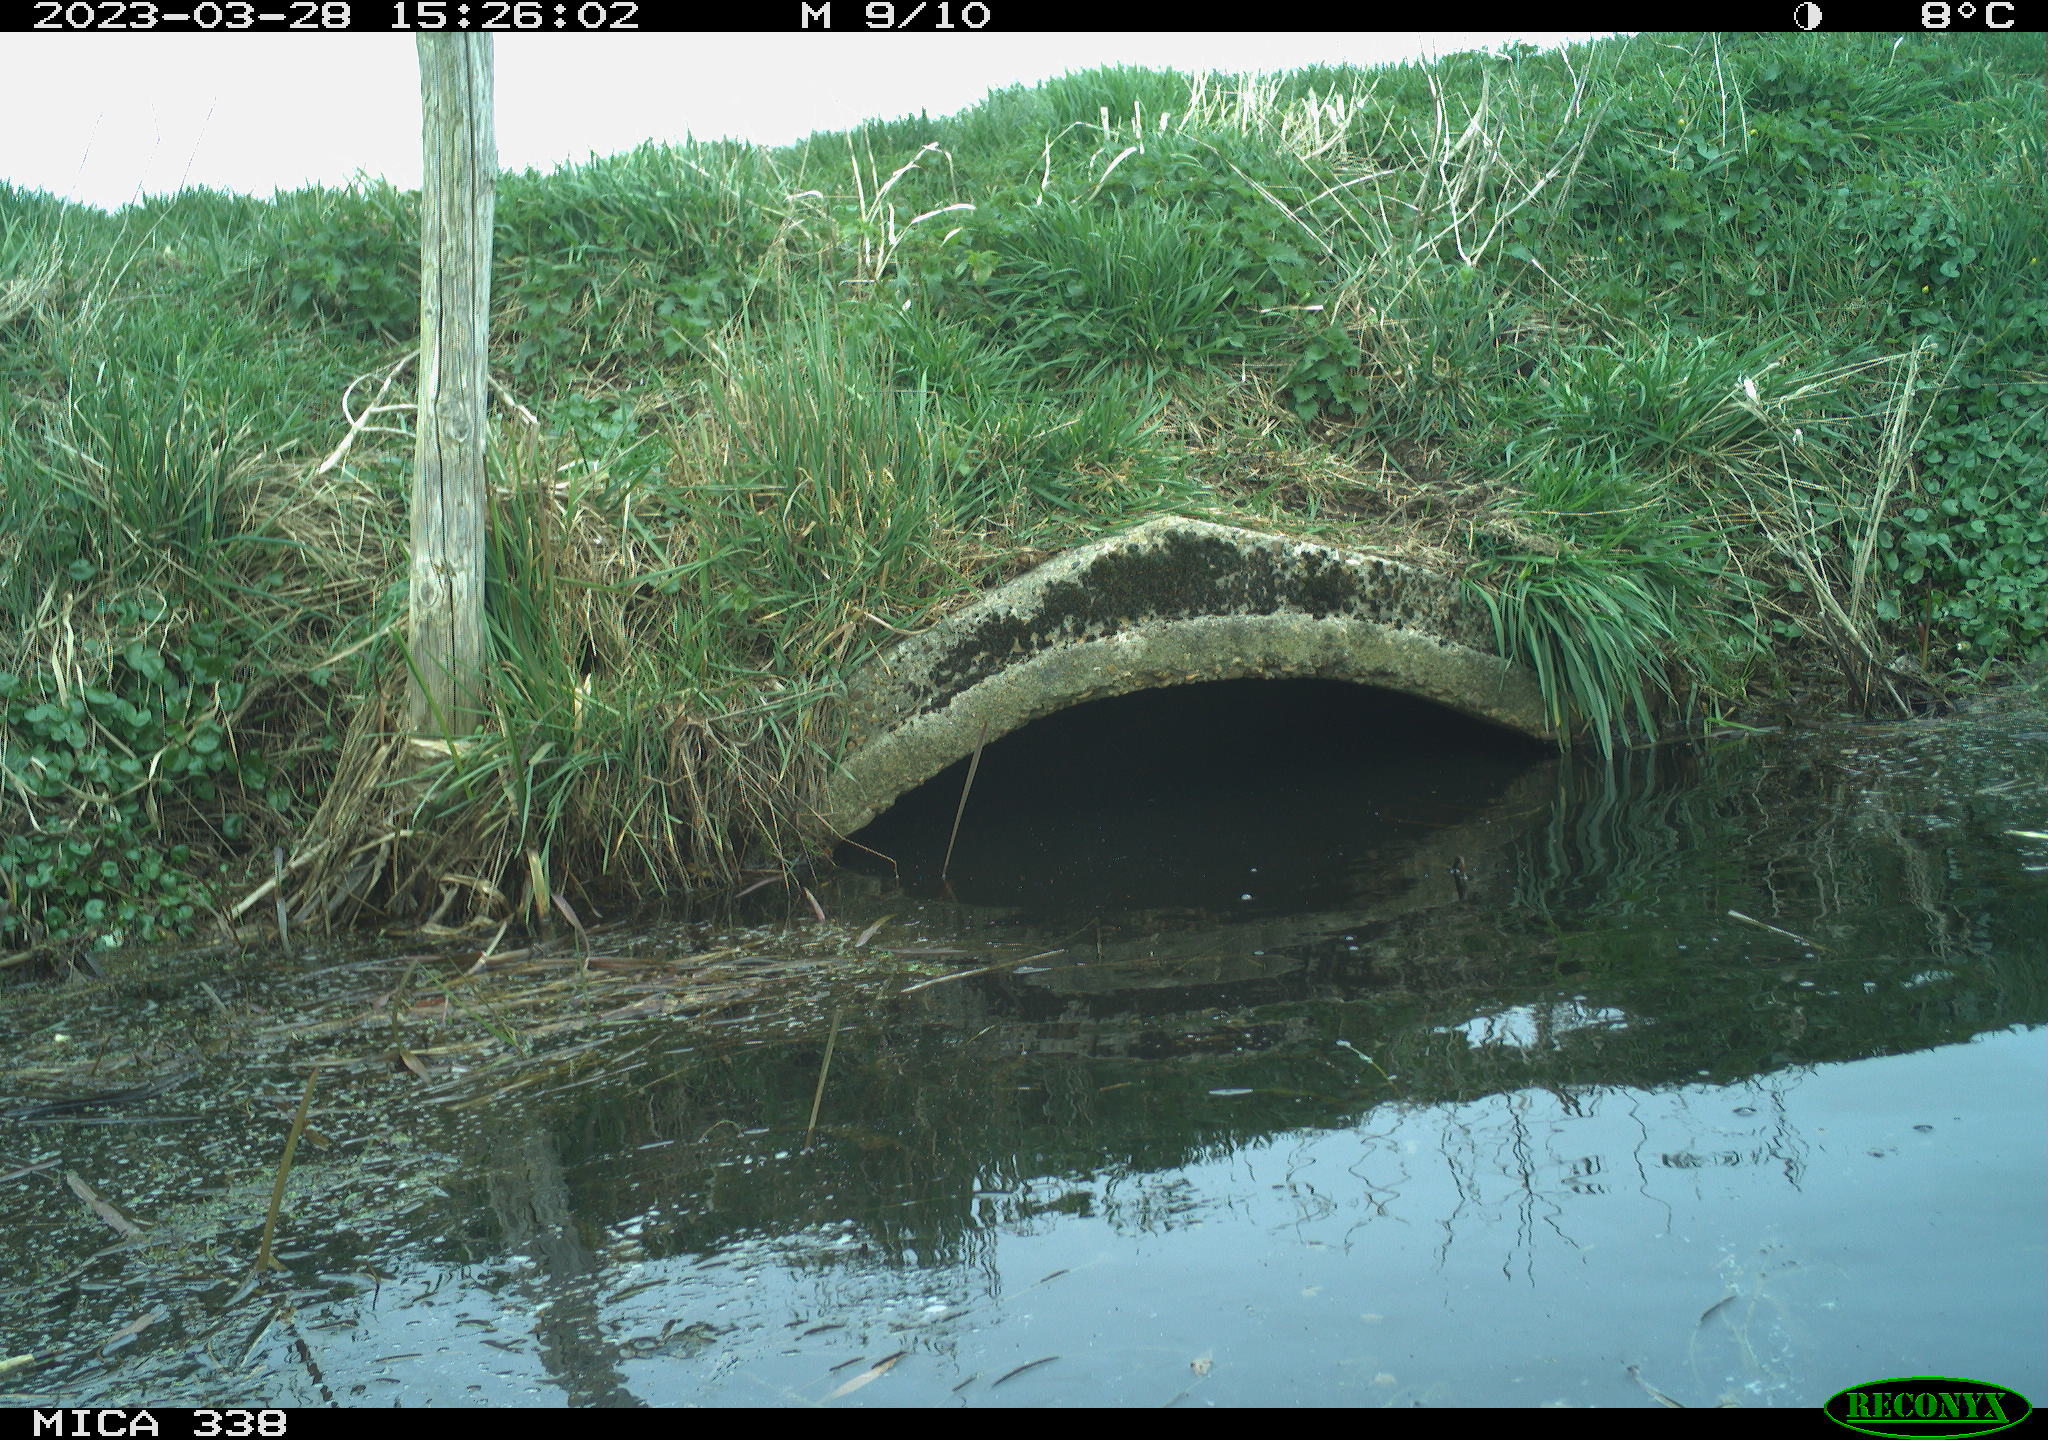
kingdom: Animalia
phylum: Chordata
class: Aves
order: Anseriformes
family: Anatidae
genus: Anas
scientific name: Anas platyrhynchos
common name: Mallard
